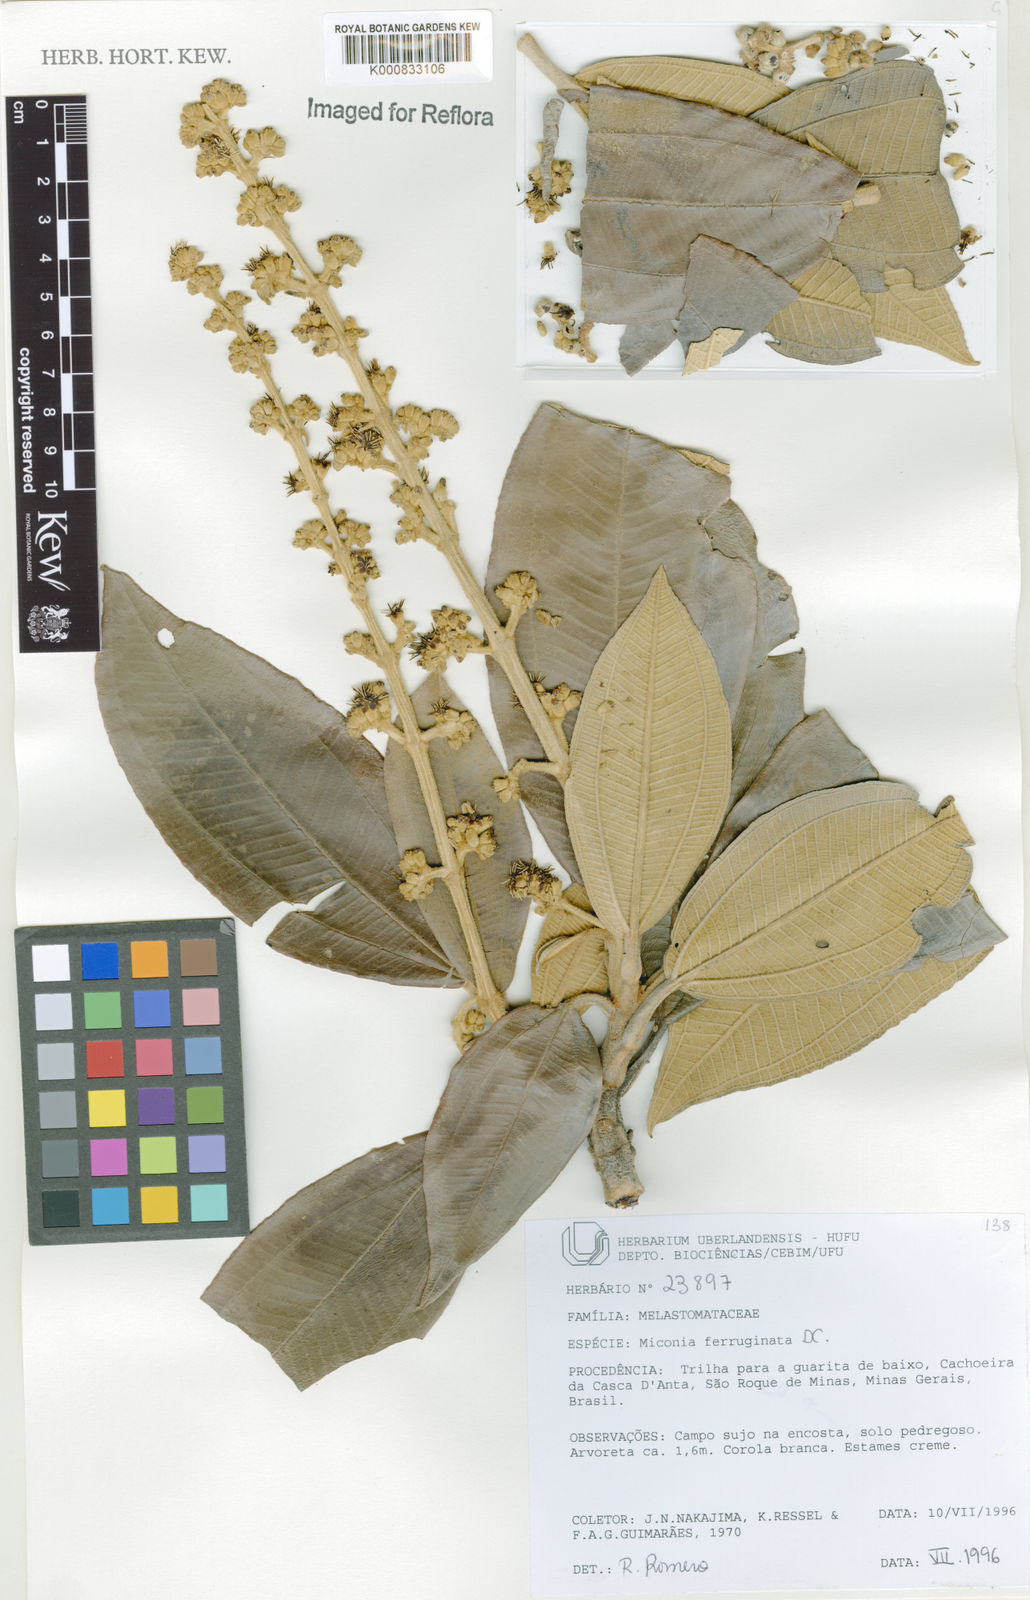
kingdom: Plantae
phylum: Tracheophyta
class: Magnoliopsida
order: Myrtales
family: Melastomataceae
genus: Miconia
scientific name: Miconia ferruginata
